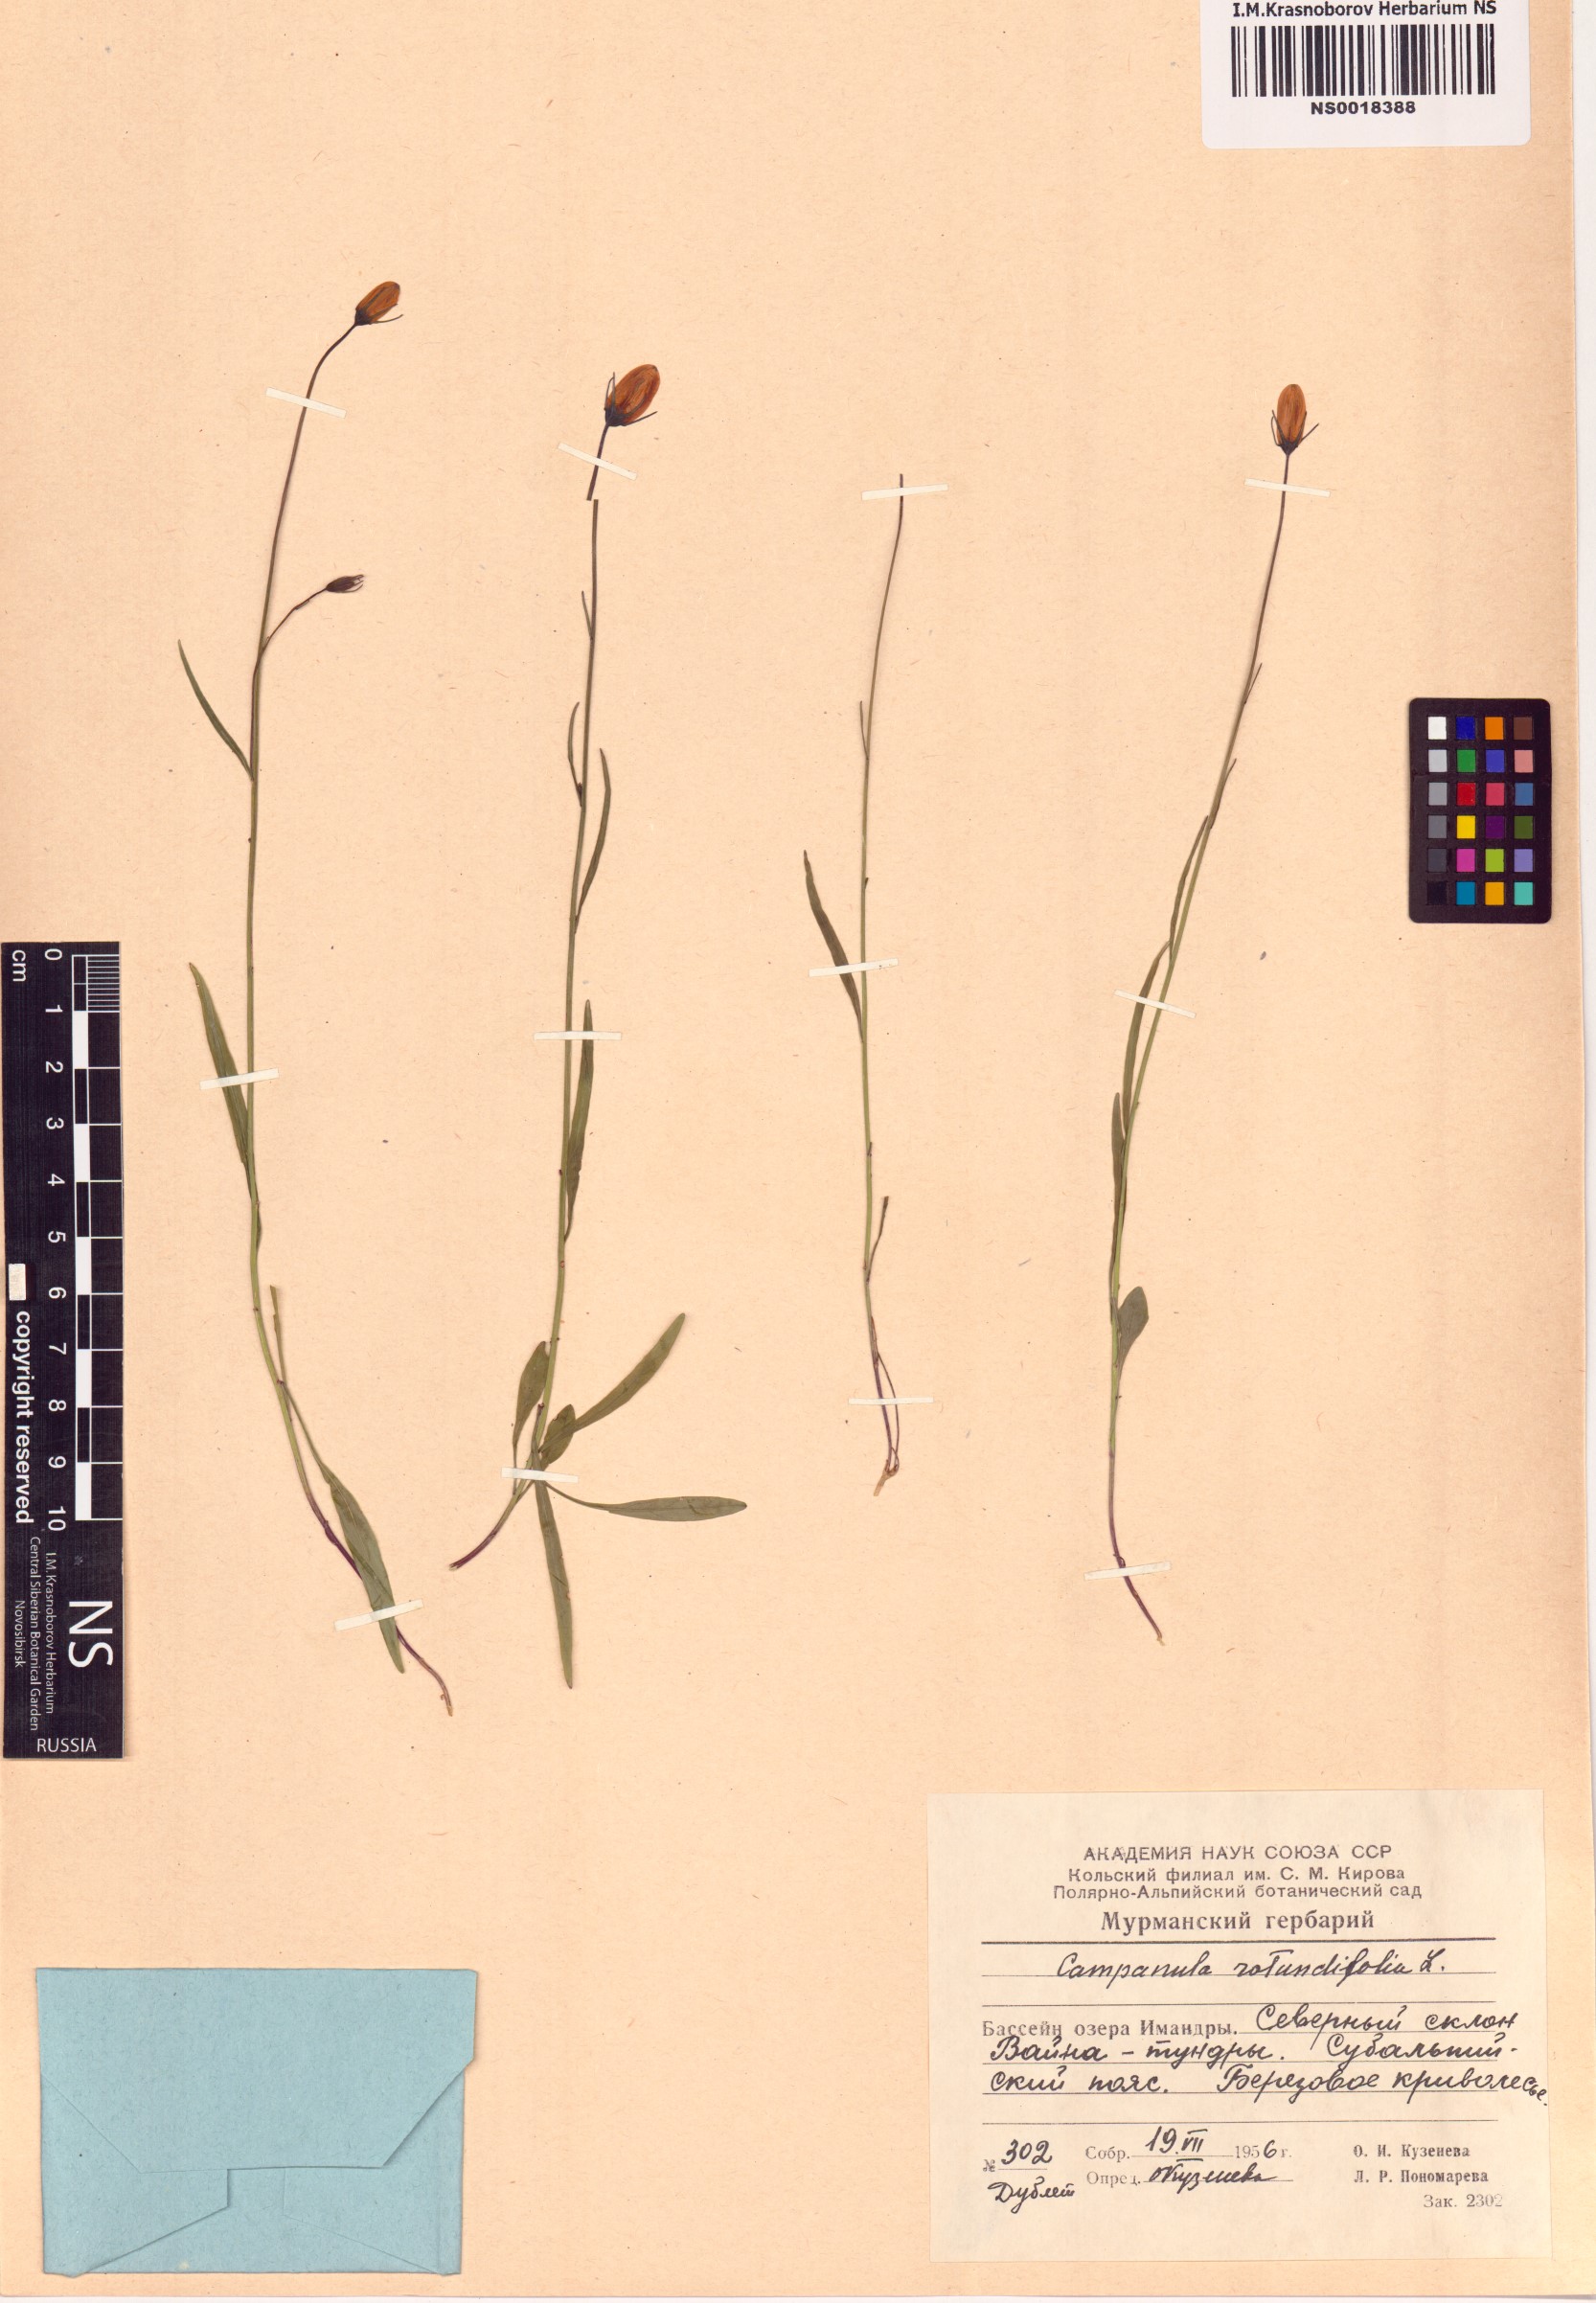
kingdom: Plantae
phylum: Tracheophyta
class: Magnoliopsida
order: Asterales
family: Campanulaceae
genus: Campanula
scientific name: Campanula rotundifolia
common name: Harebell
